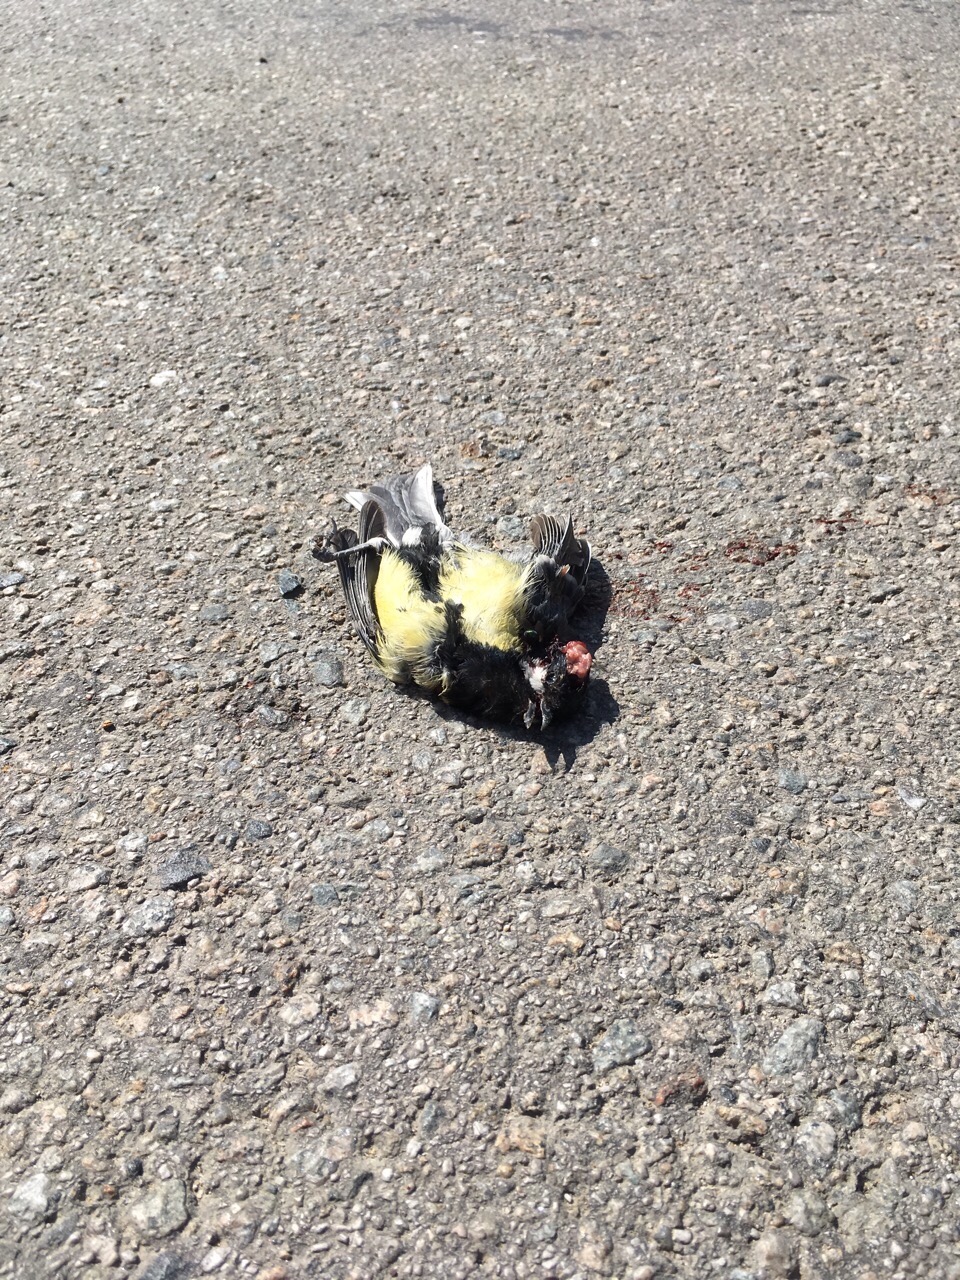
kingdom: Animalia
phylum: Chordata
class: Aves
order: Passeriformes
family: Paridae
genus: Parus
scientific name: Parus major
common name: Great tit
